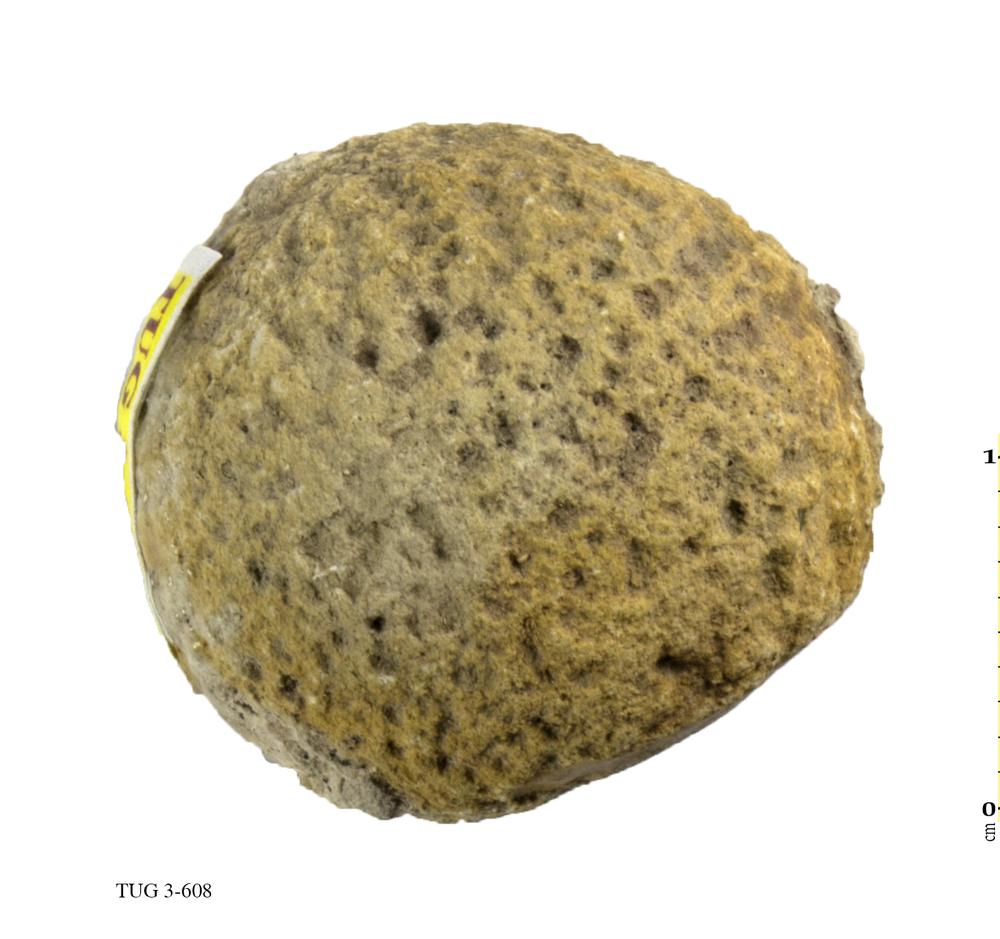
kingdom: Animalia
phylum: Porifera
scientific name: Porifera
